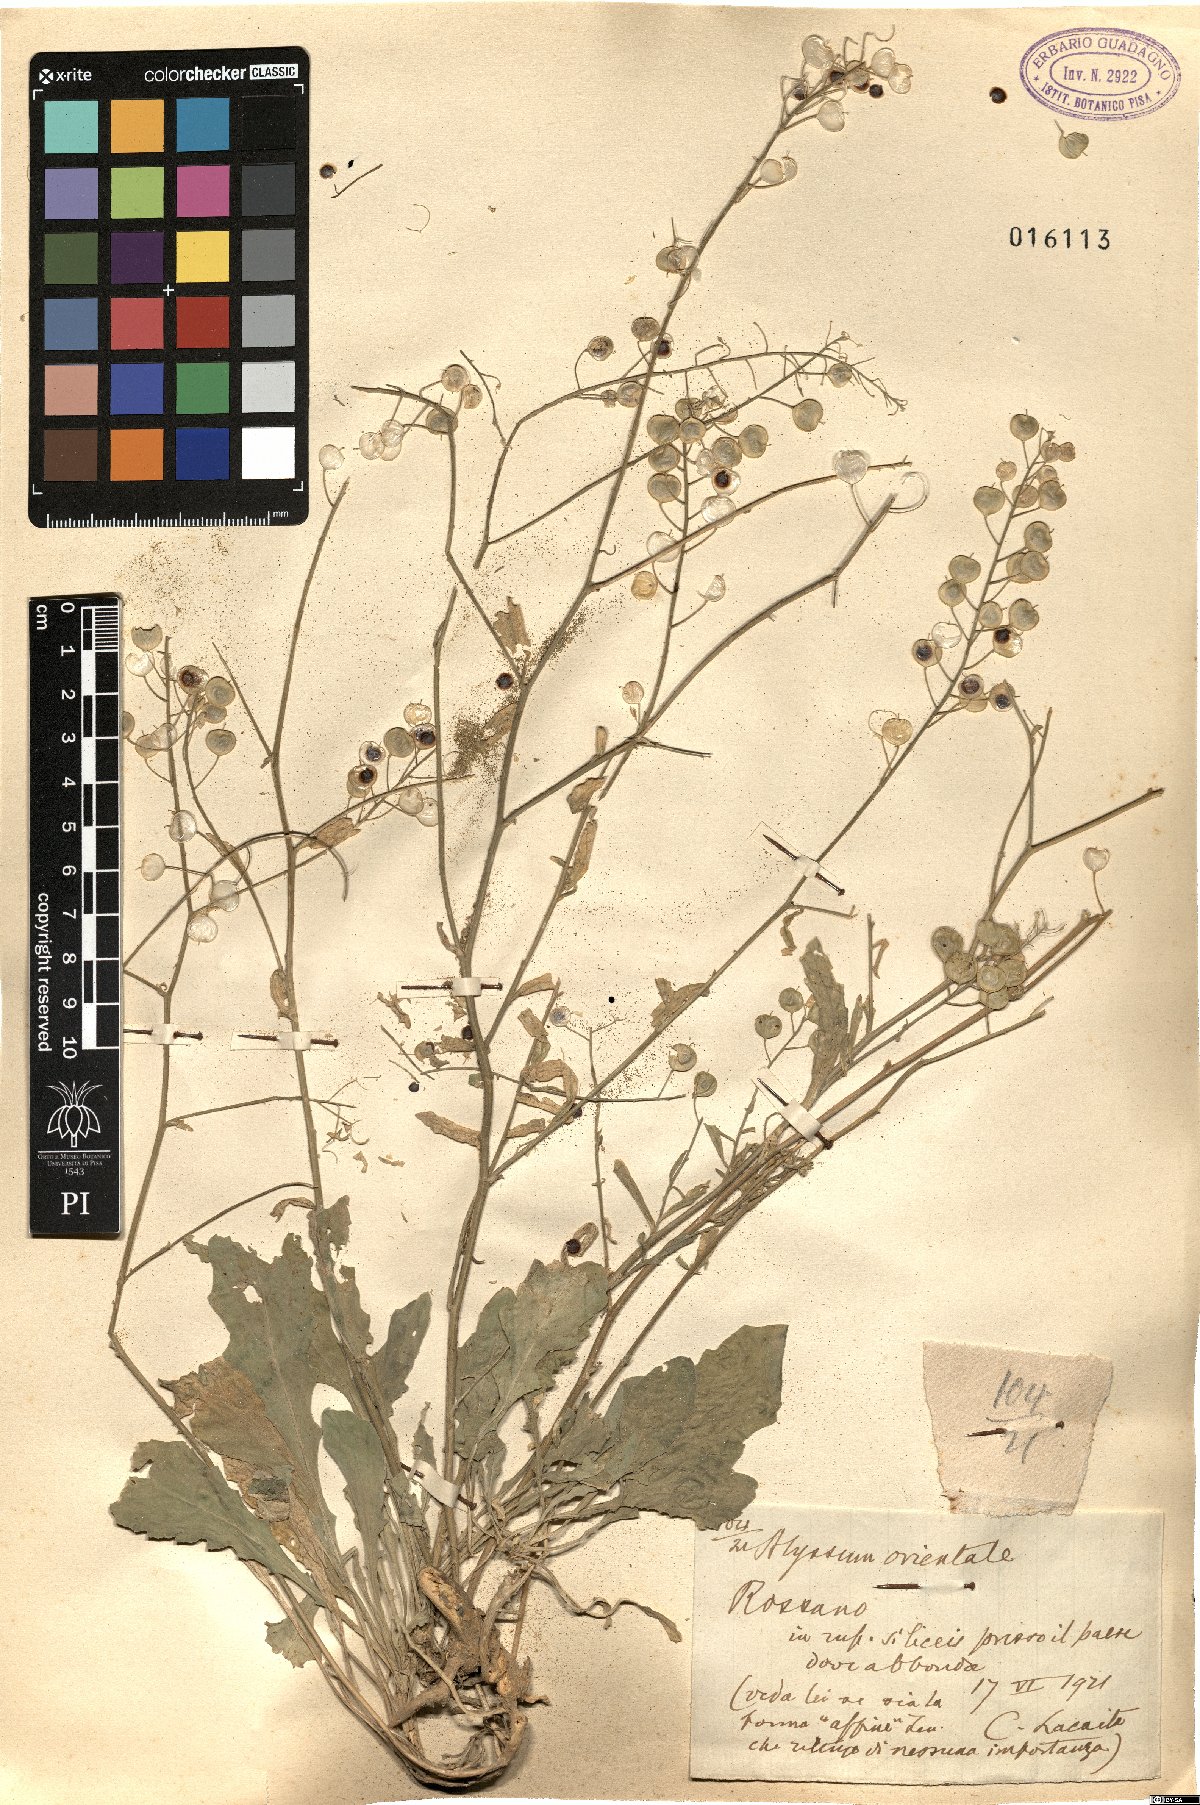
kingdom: Plantae
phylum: Tracheophyta
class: Magnoliopsida
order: Brassicales
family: Brassicaceae
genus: Aurinia
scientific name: Aurinia saxatilis
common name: Golden-tuft alyssum
